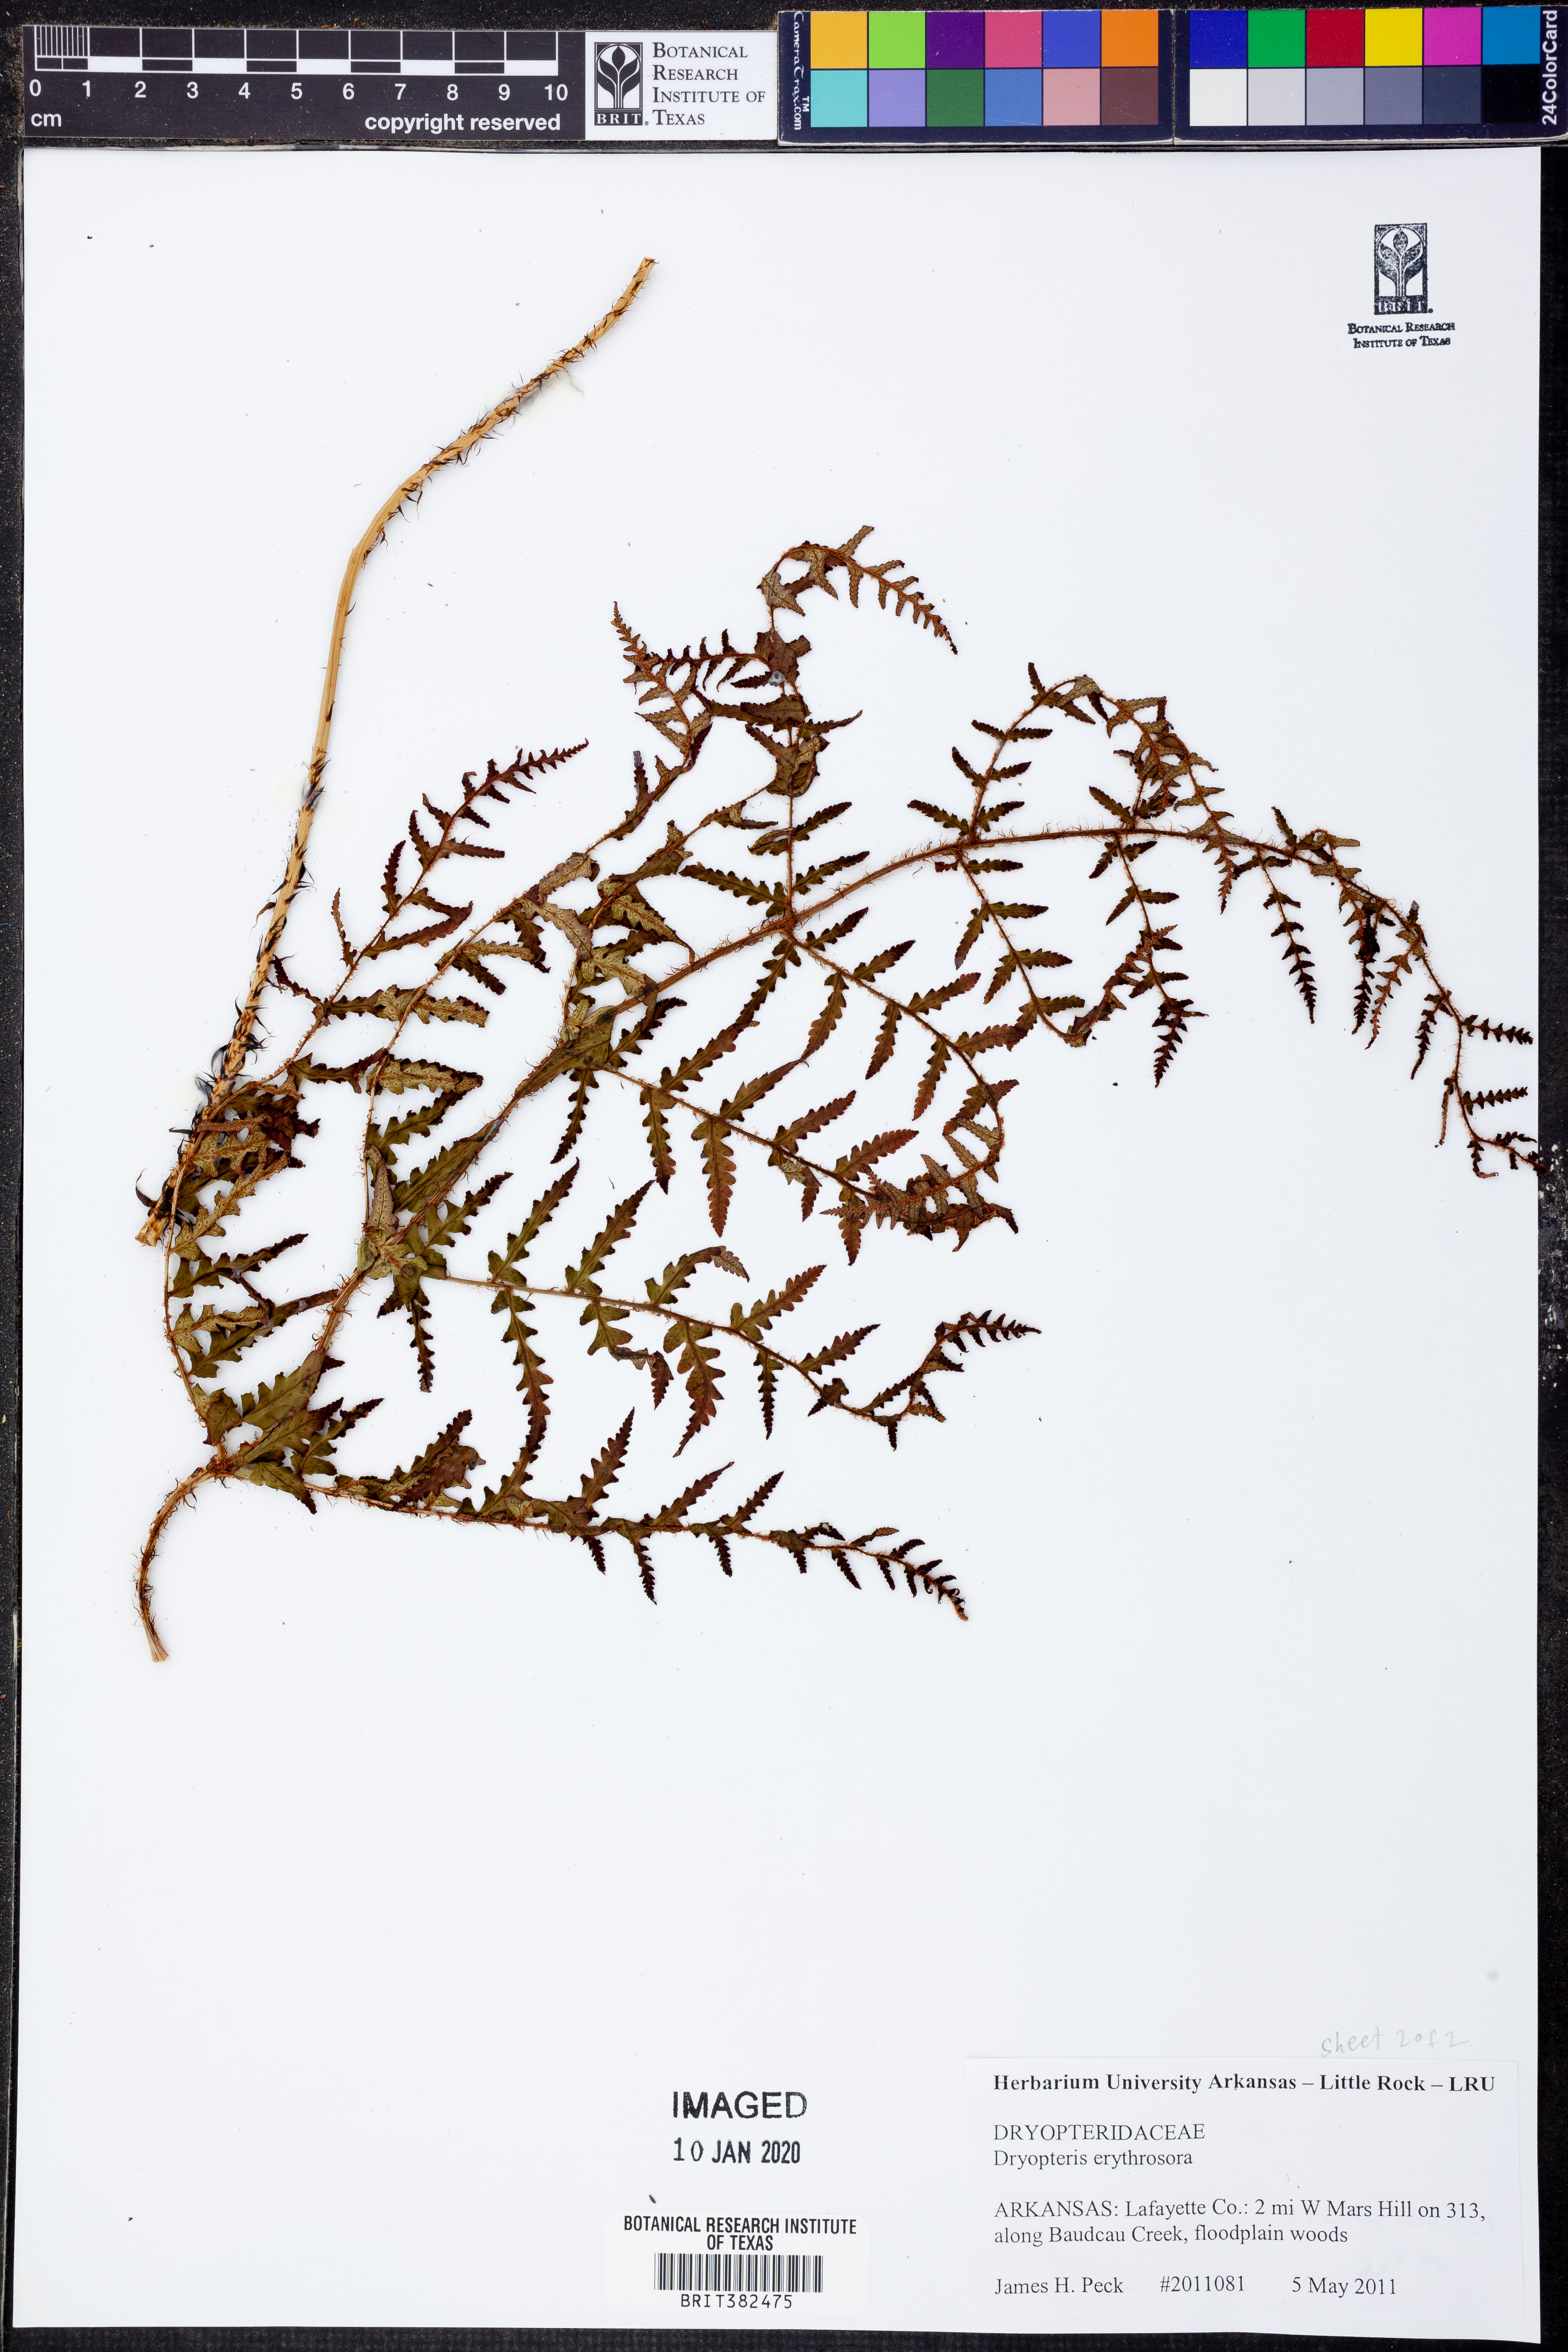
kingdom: Plantae
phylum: Tracheophyta
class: Polypodiopsida
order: Polypodiales
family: Dryopteridaceae
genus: Dryopteris
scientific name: Dryopteris erythrosora
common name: Autumn fern
